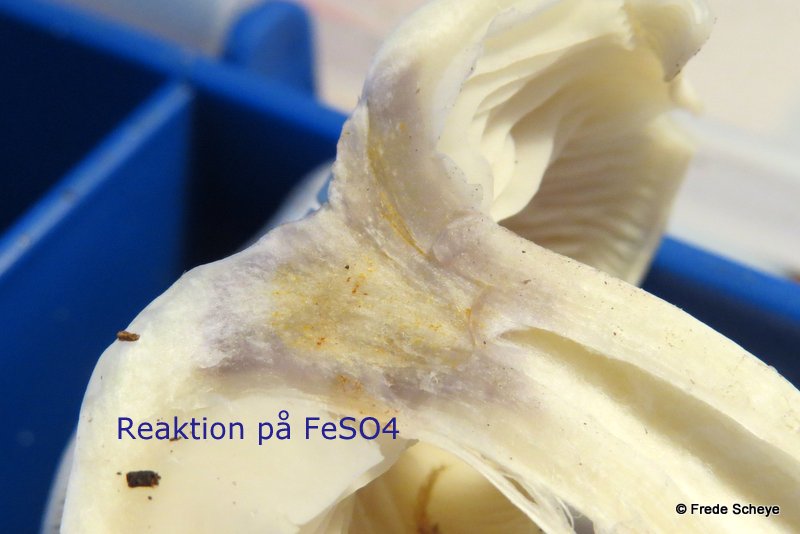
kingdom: Fungi
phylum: Basidiomycota
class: Agaricomycetes
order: Agaricales
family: Tricholomataceae
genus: Leucocybe
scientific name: Leucocybe connata
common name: knippe-tragthat
